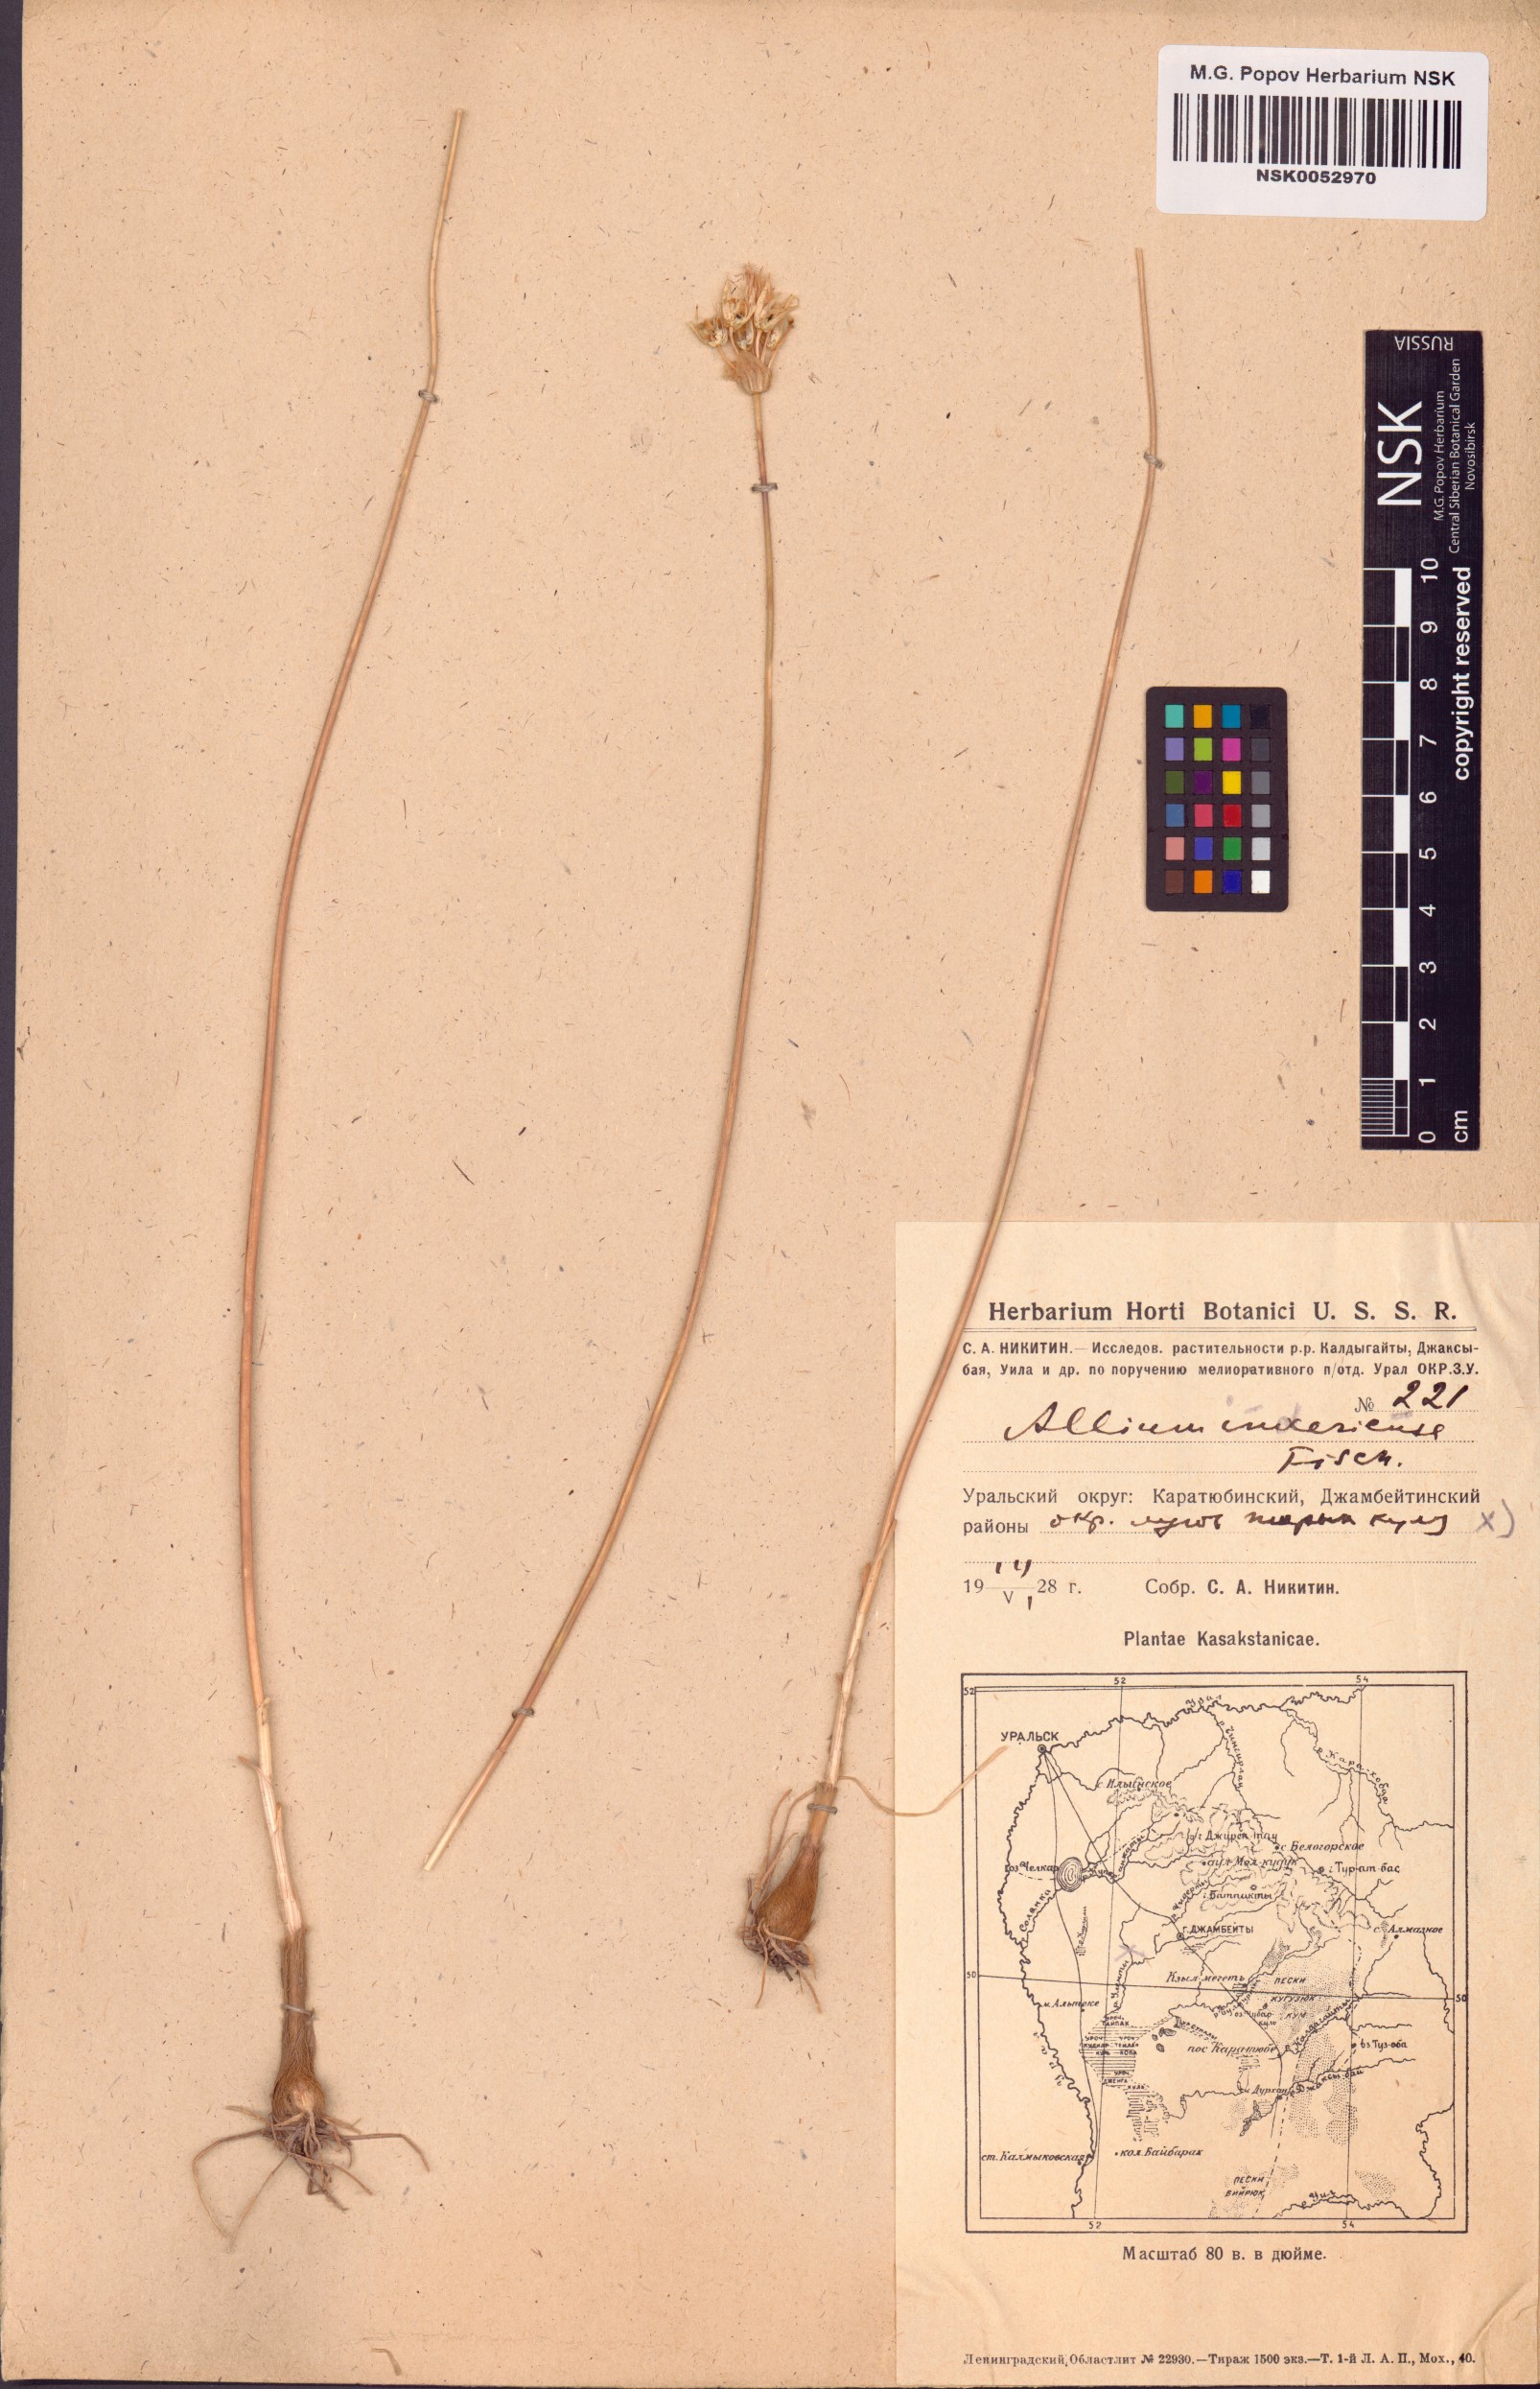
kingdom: Plantae
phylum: Tracheophyta
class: Liliopsida
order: Asparagales
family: Amaryllidaceae
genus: Allium
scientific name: Allium inderiense
